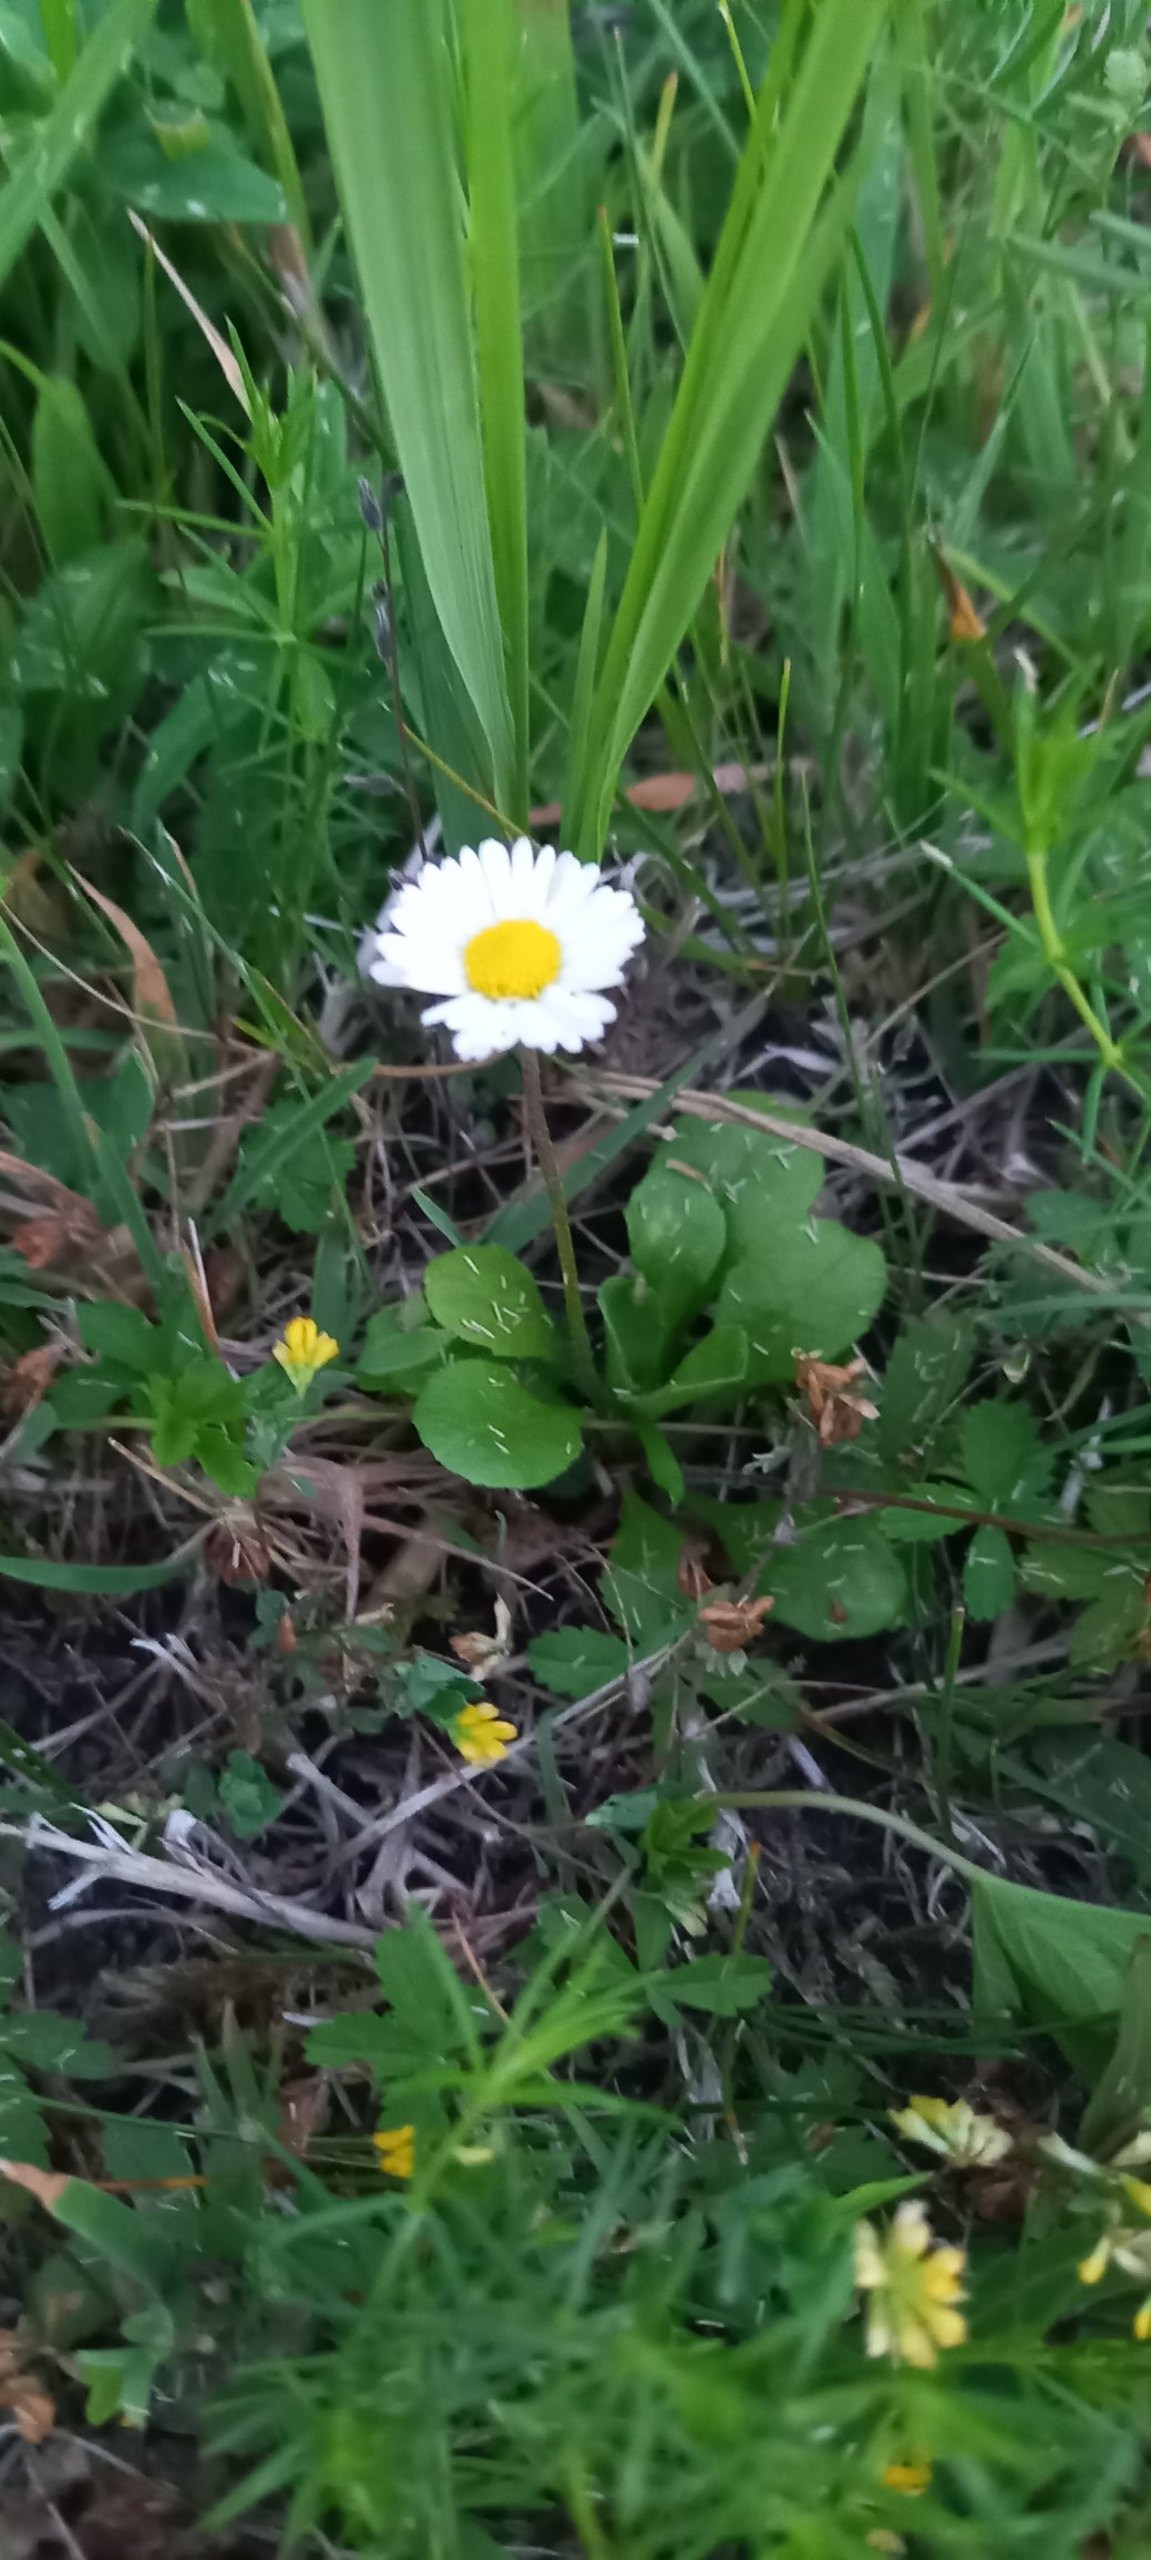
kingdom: Plantae
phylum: Tracheophyta
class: Magnoliopsida
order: Asterales
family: Asteraceae
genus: Bellis
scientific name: Bellis perennis
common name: Tusindfryd
